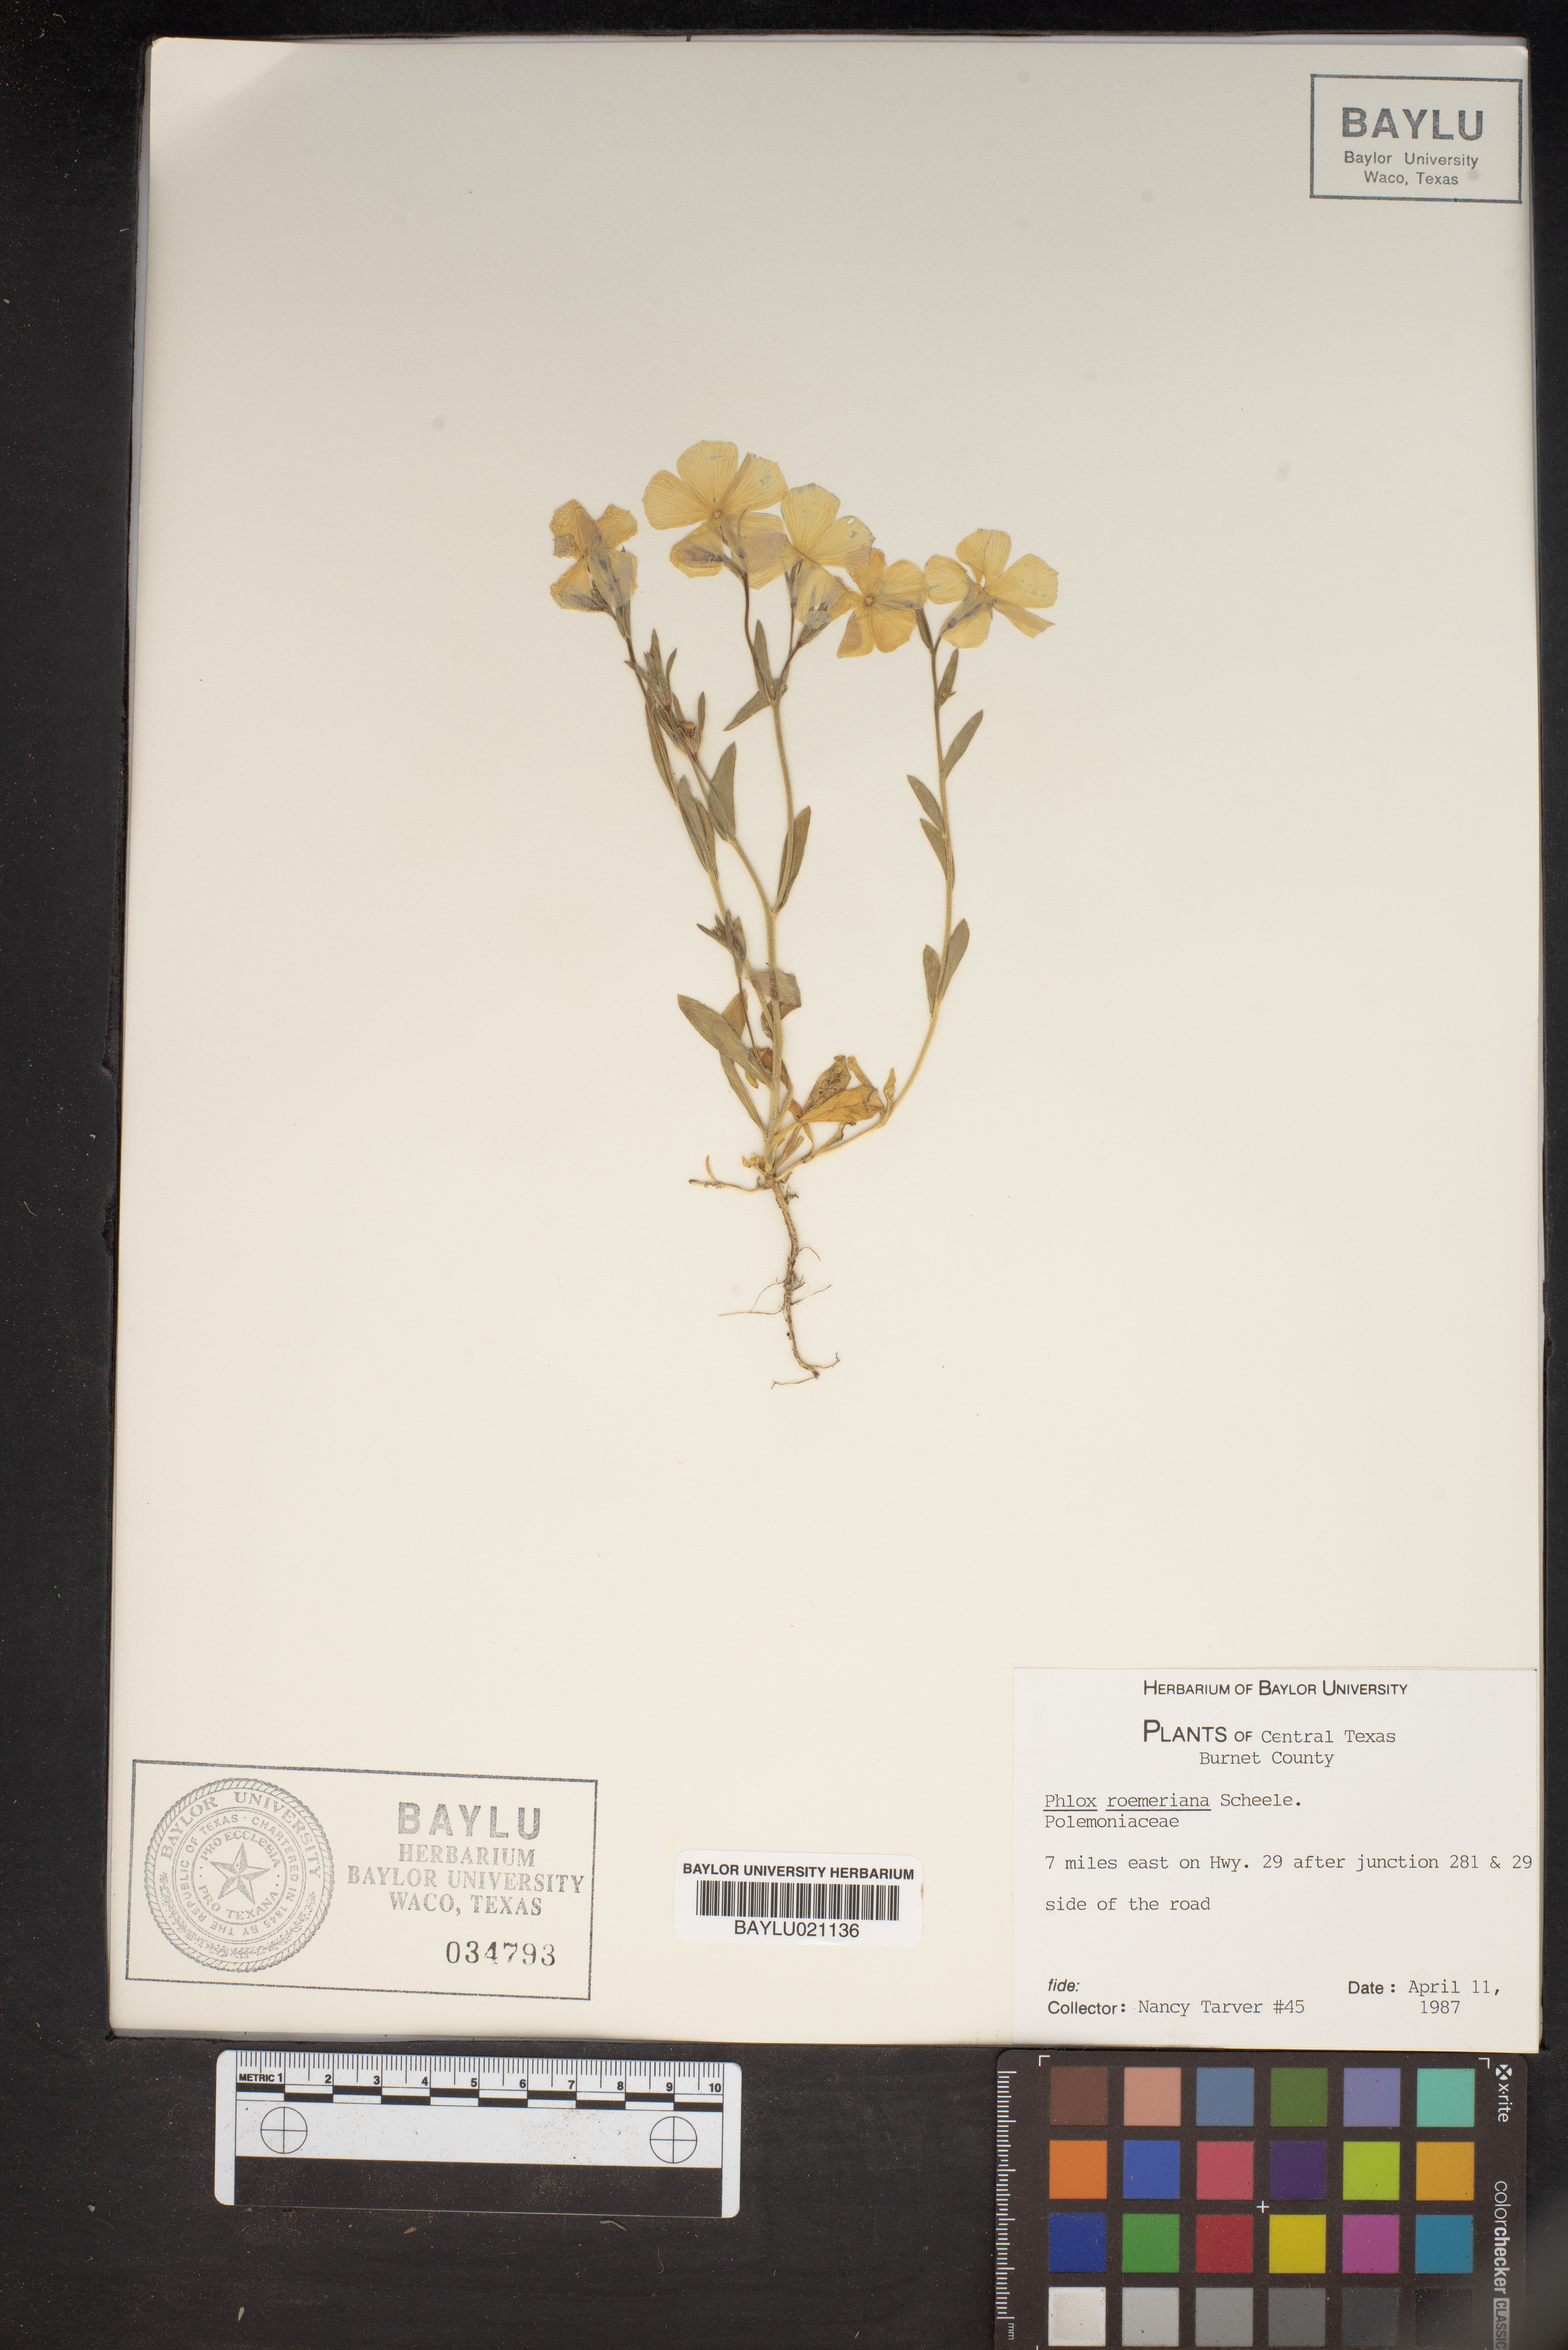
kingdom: Plantae
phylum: Tracheophyta
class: Magnoliopsida
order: Ericales
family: Polemoniaceae
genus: Phlox
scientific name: Phlox roemeriana
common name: Roemer's phlox
